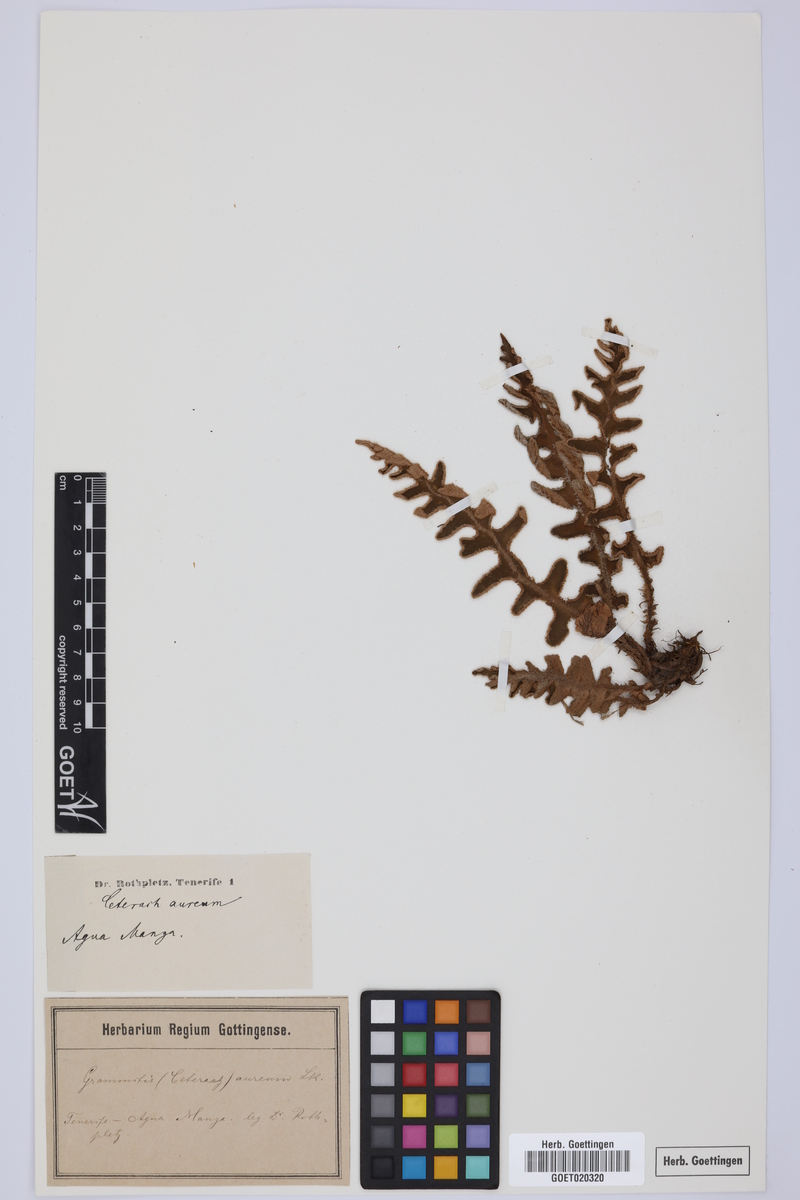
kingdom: Plantae
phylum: Tracheophyta
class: Polypodiopsida
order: Polypodiales
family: Aspleniaceae
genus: Asplenium
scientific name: Asplenium aureum
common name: Golden rustyback fern
